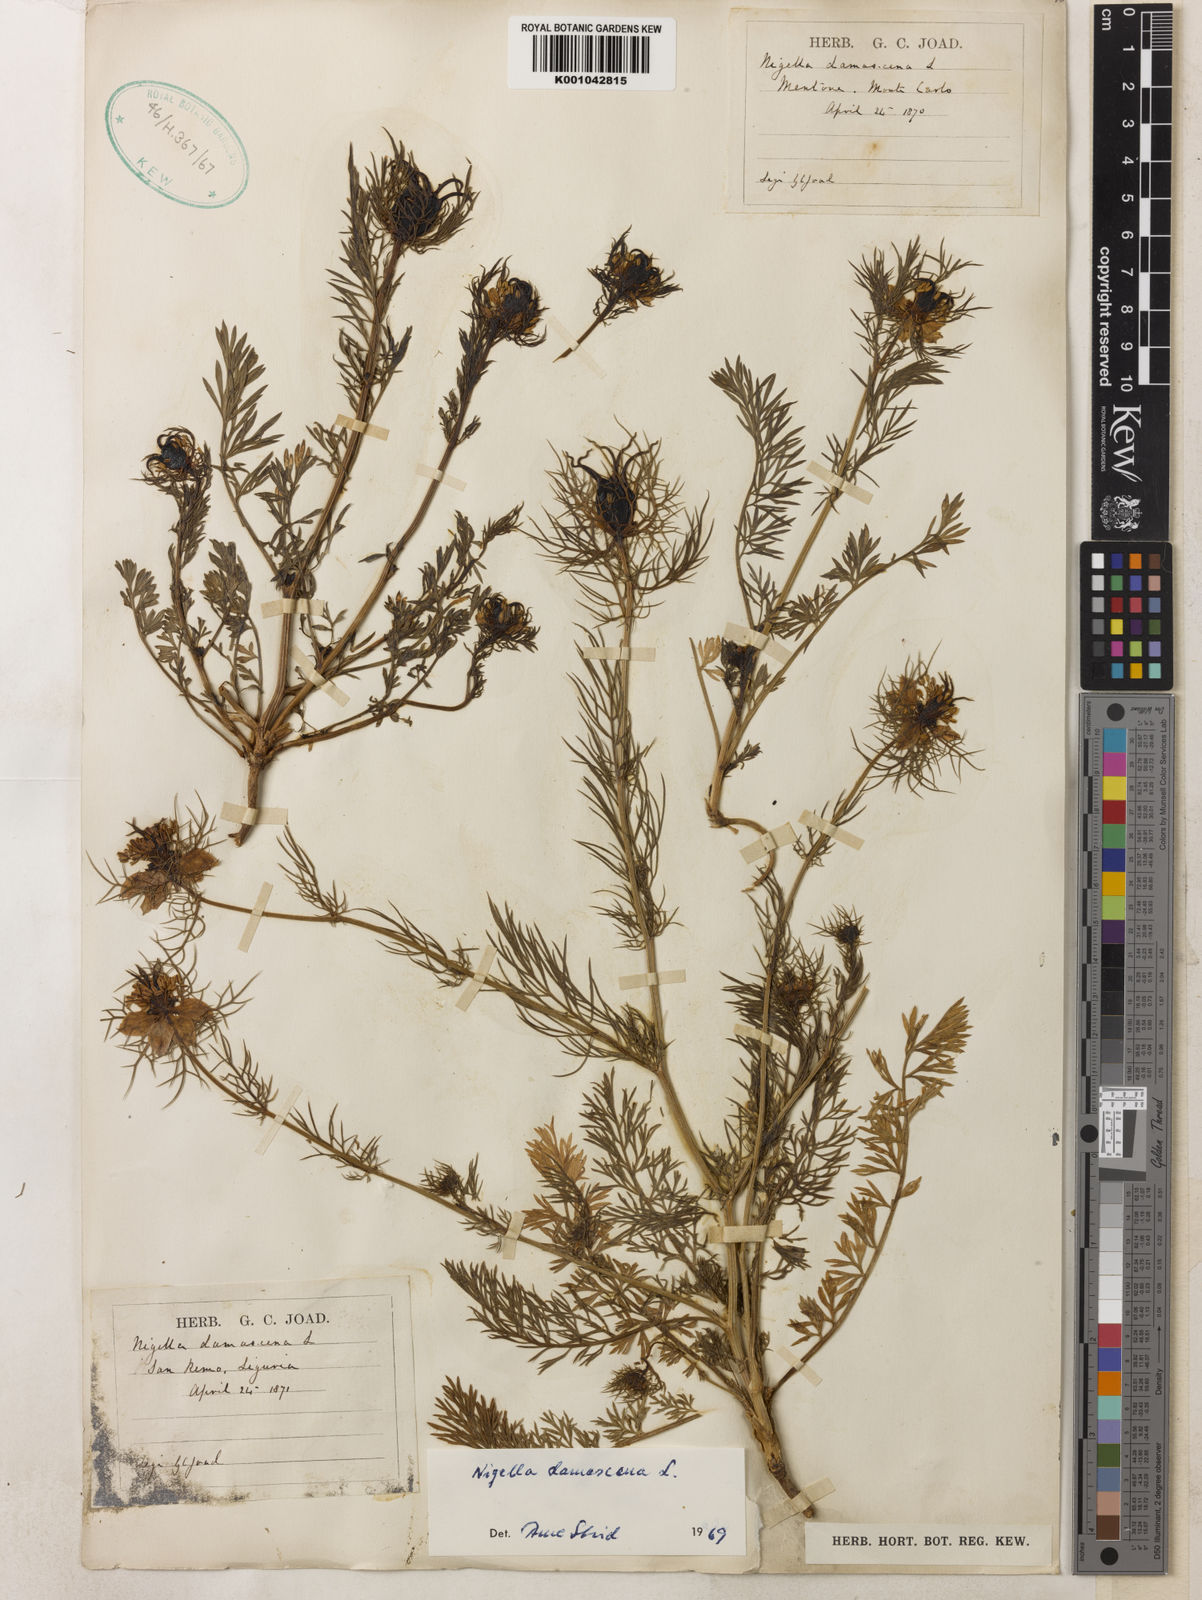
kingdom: Plantae
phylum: Tracheophyta
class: Magnoliopsida
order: Ranunculales
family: Ranunculaceae
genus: Nigella
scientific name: Nigella damascena
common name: Love-in-a-mist
